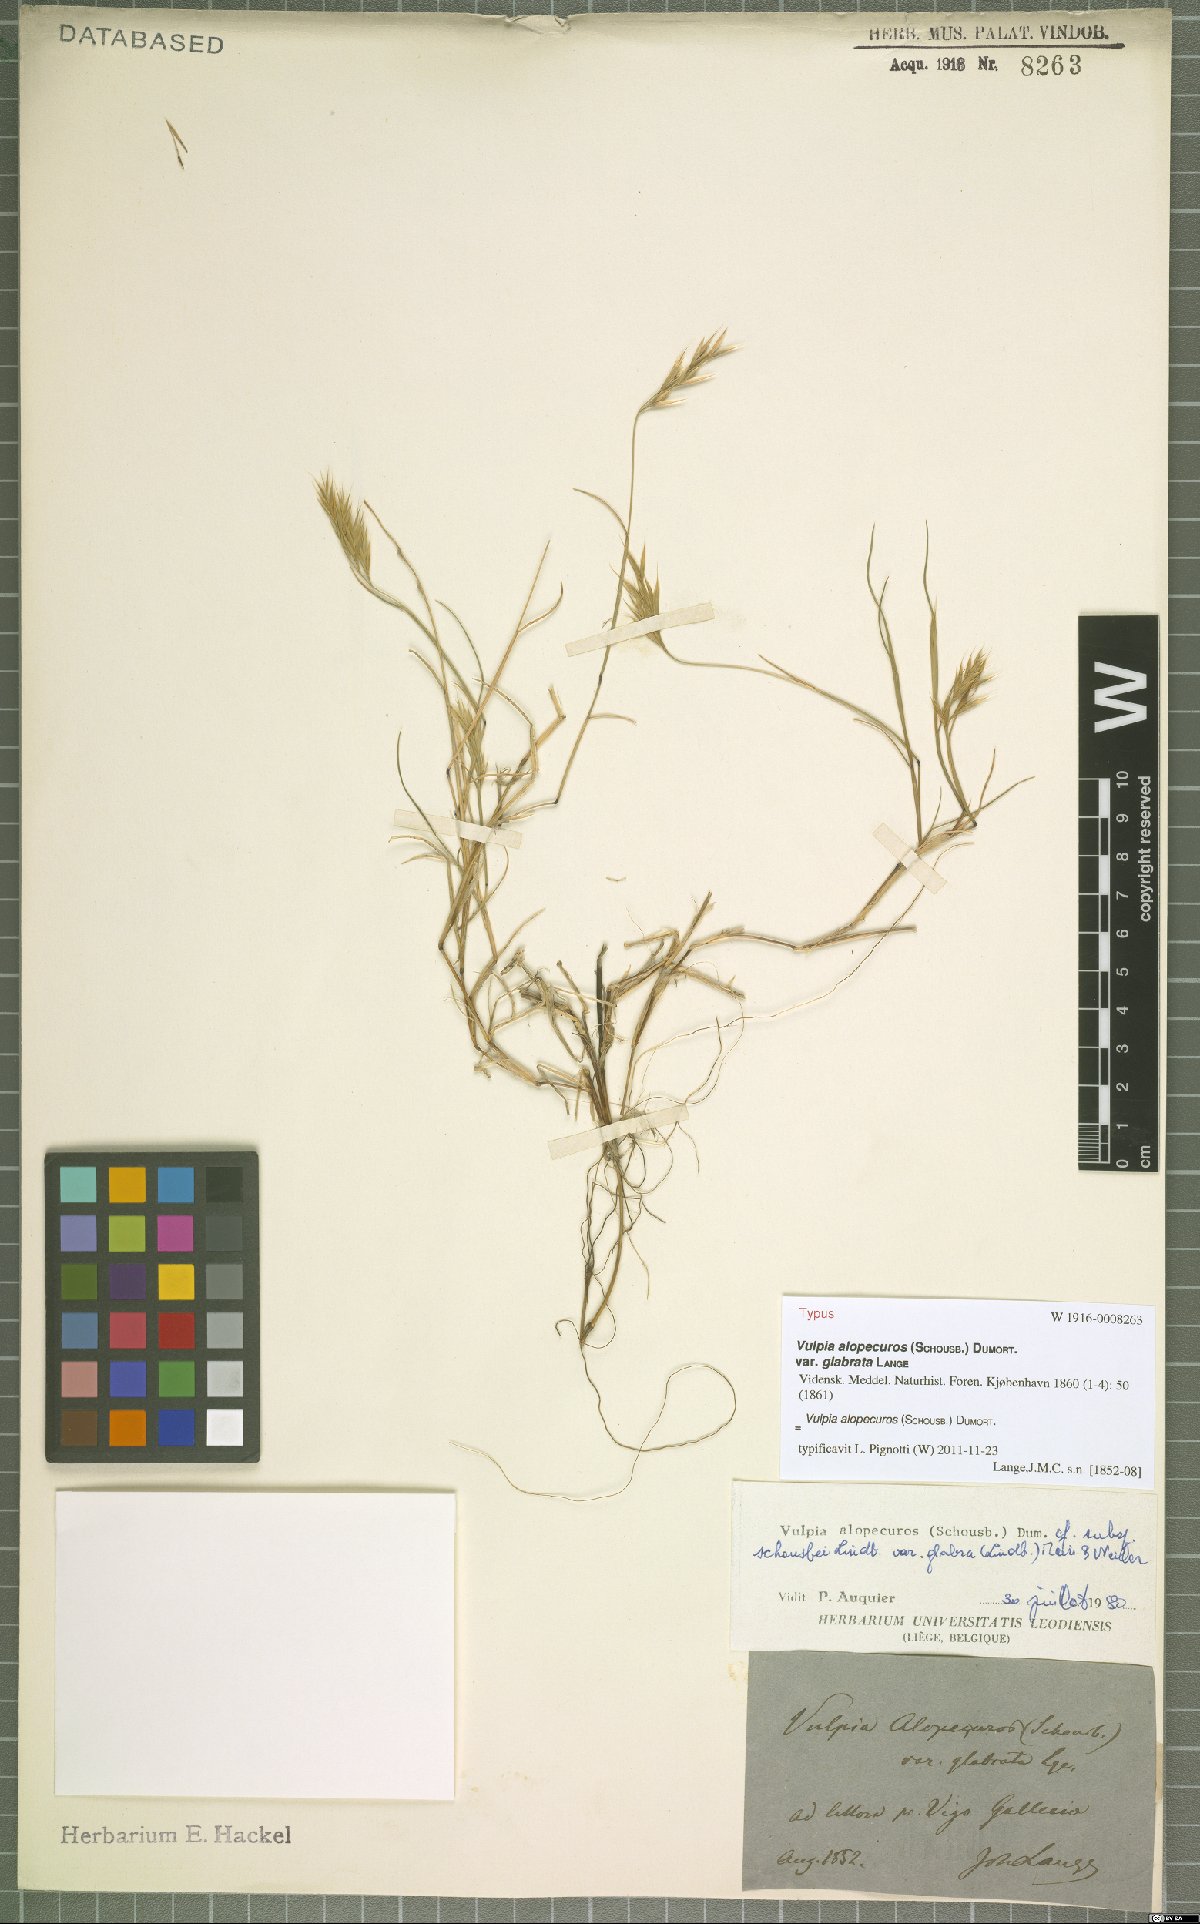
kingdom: Plantae
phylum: Tracheophyta
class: Liliopsida
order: Poales
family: Poaceae
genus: Festuca
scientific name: Festuca alopecuros
